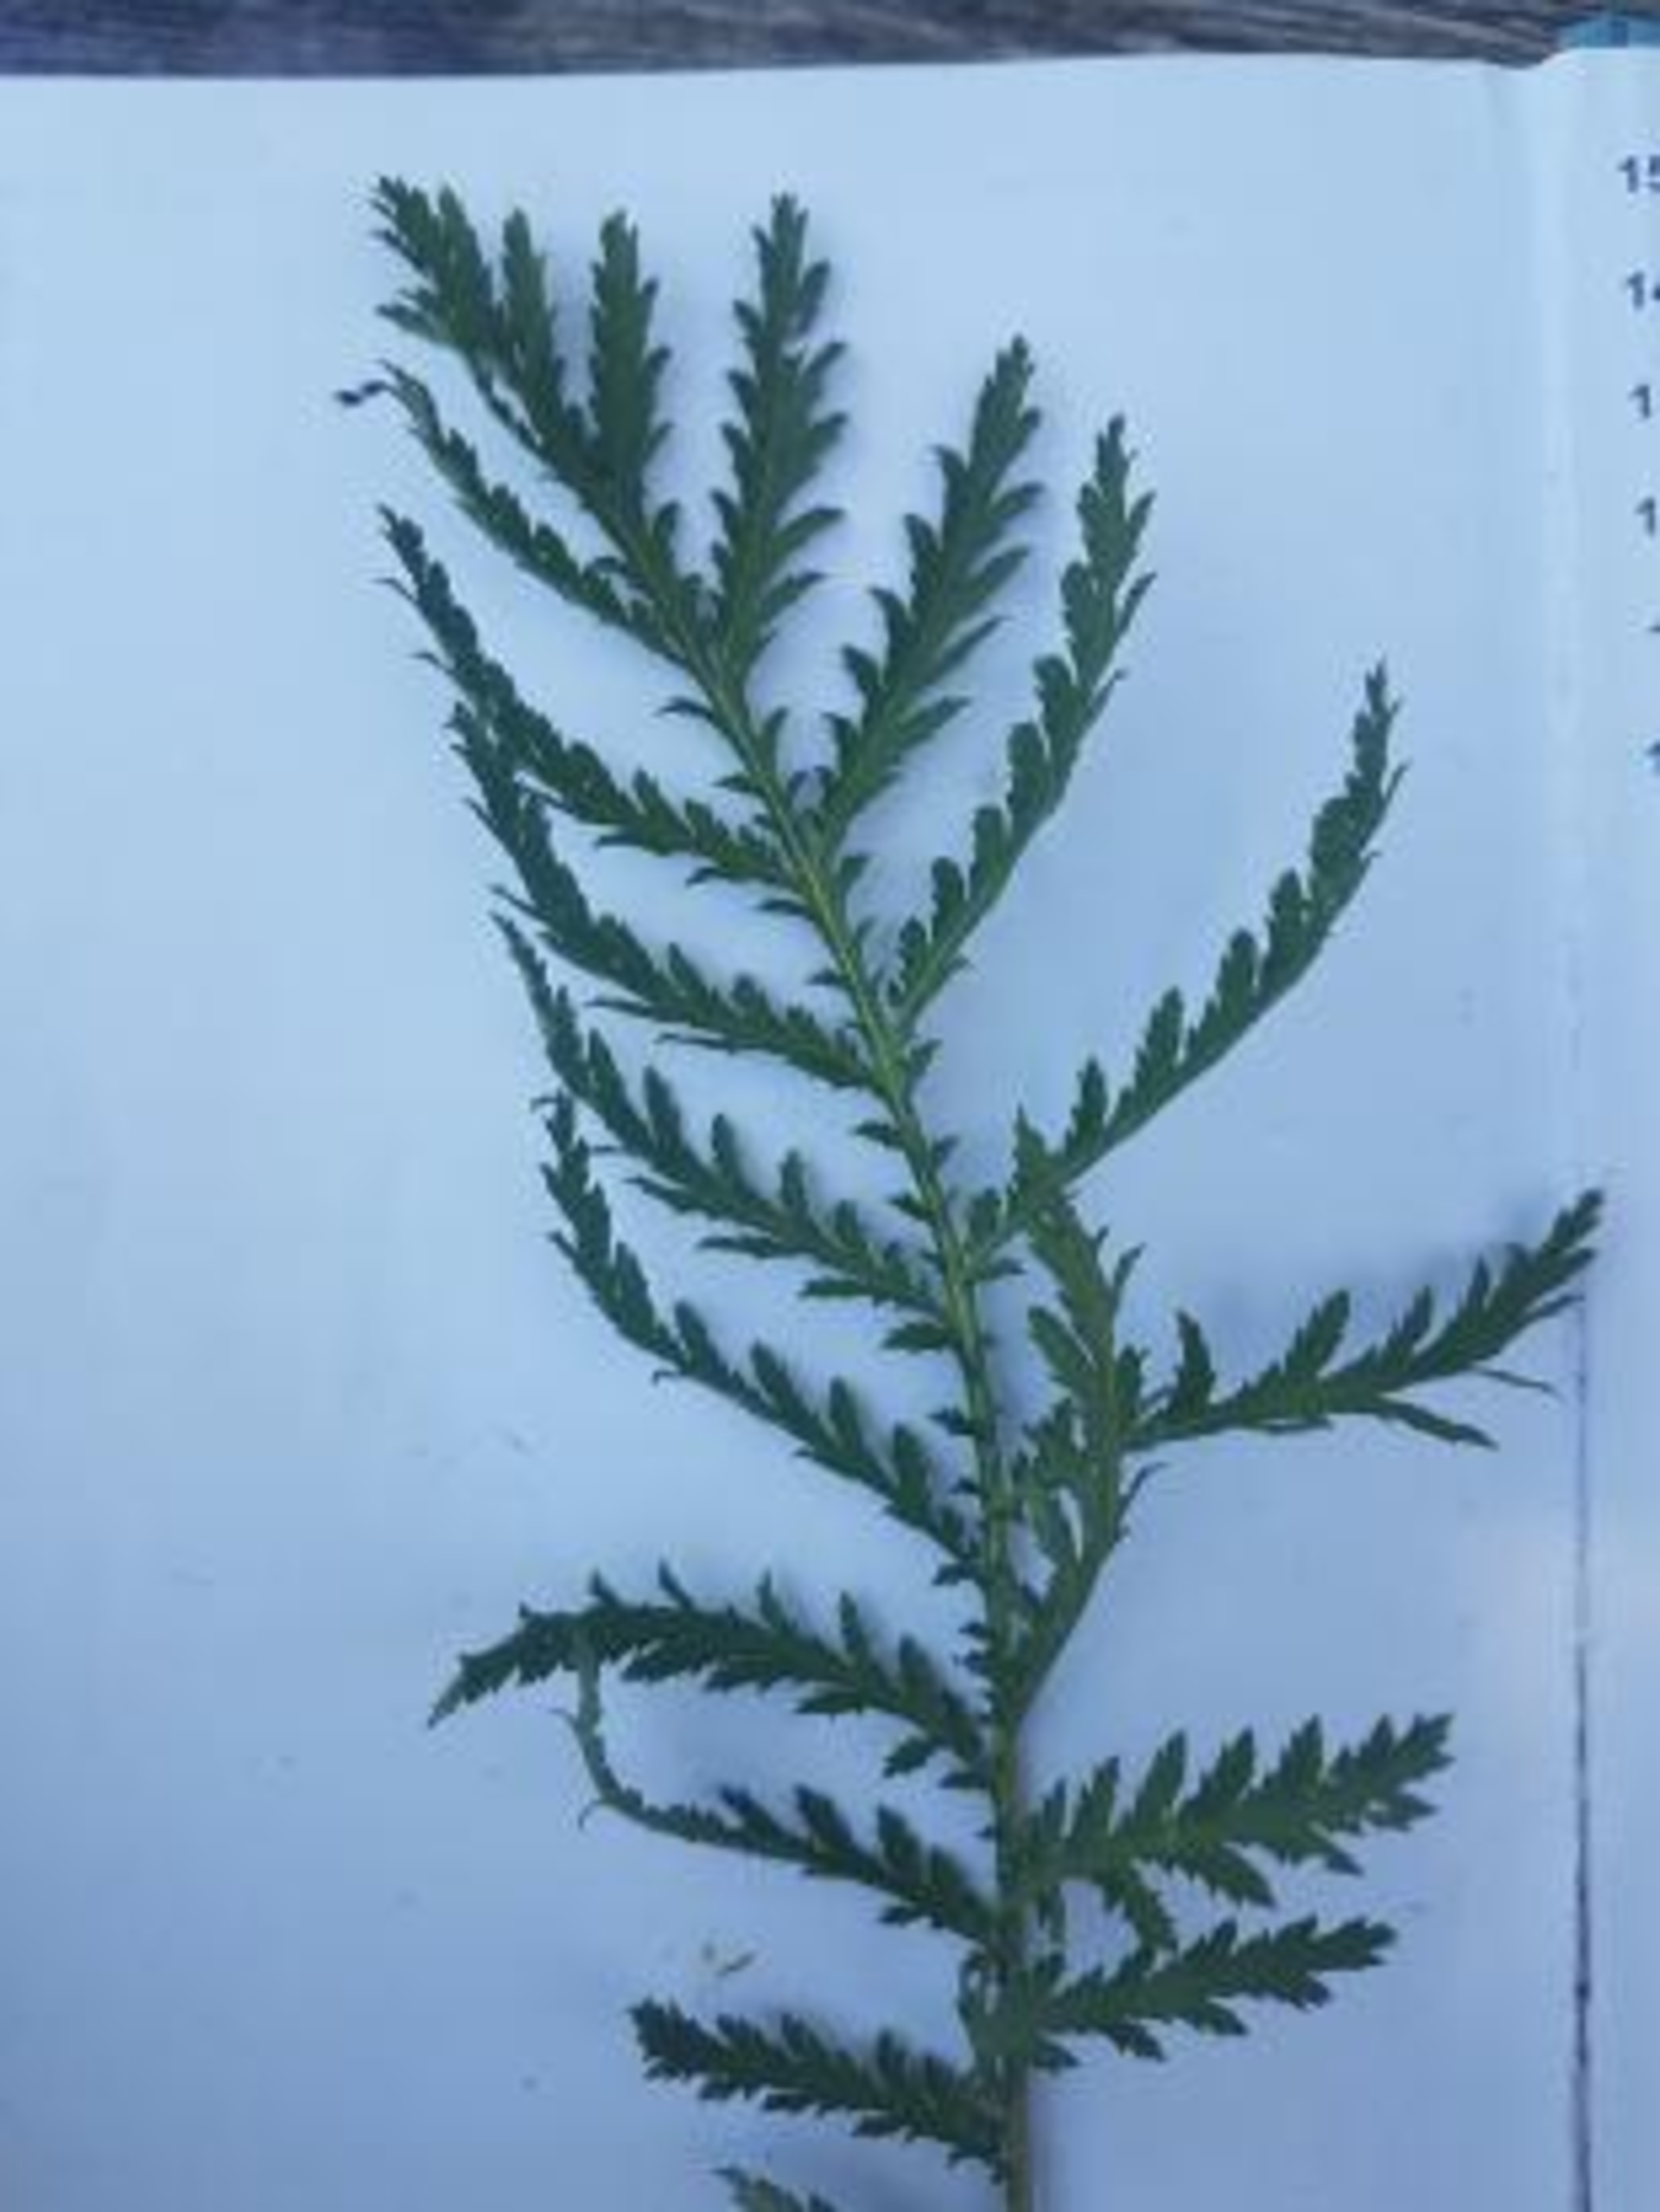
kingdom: Plantae
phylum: Tracheophyta
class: Magnoliopsida
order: Asterales
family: Asteraceae
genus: Tanacetum
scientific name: Tanacetum vulgare
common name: Rejnfan
